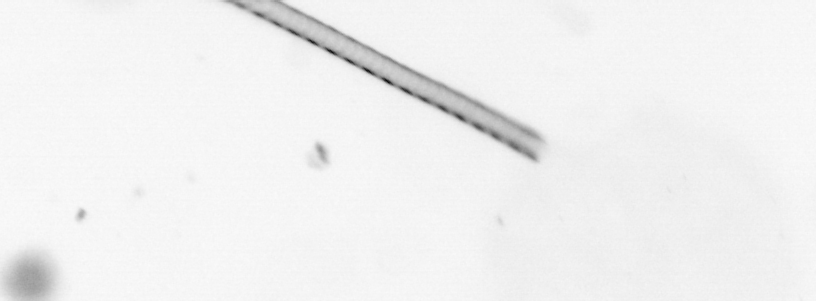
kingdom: Chromista
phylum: Ochrophyta
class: Bacillariophyceae
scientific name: Bacillariophyceae
